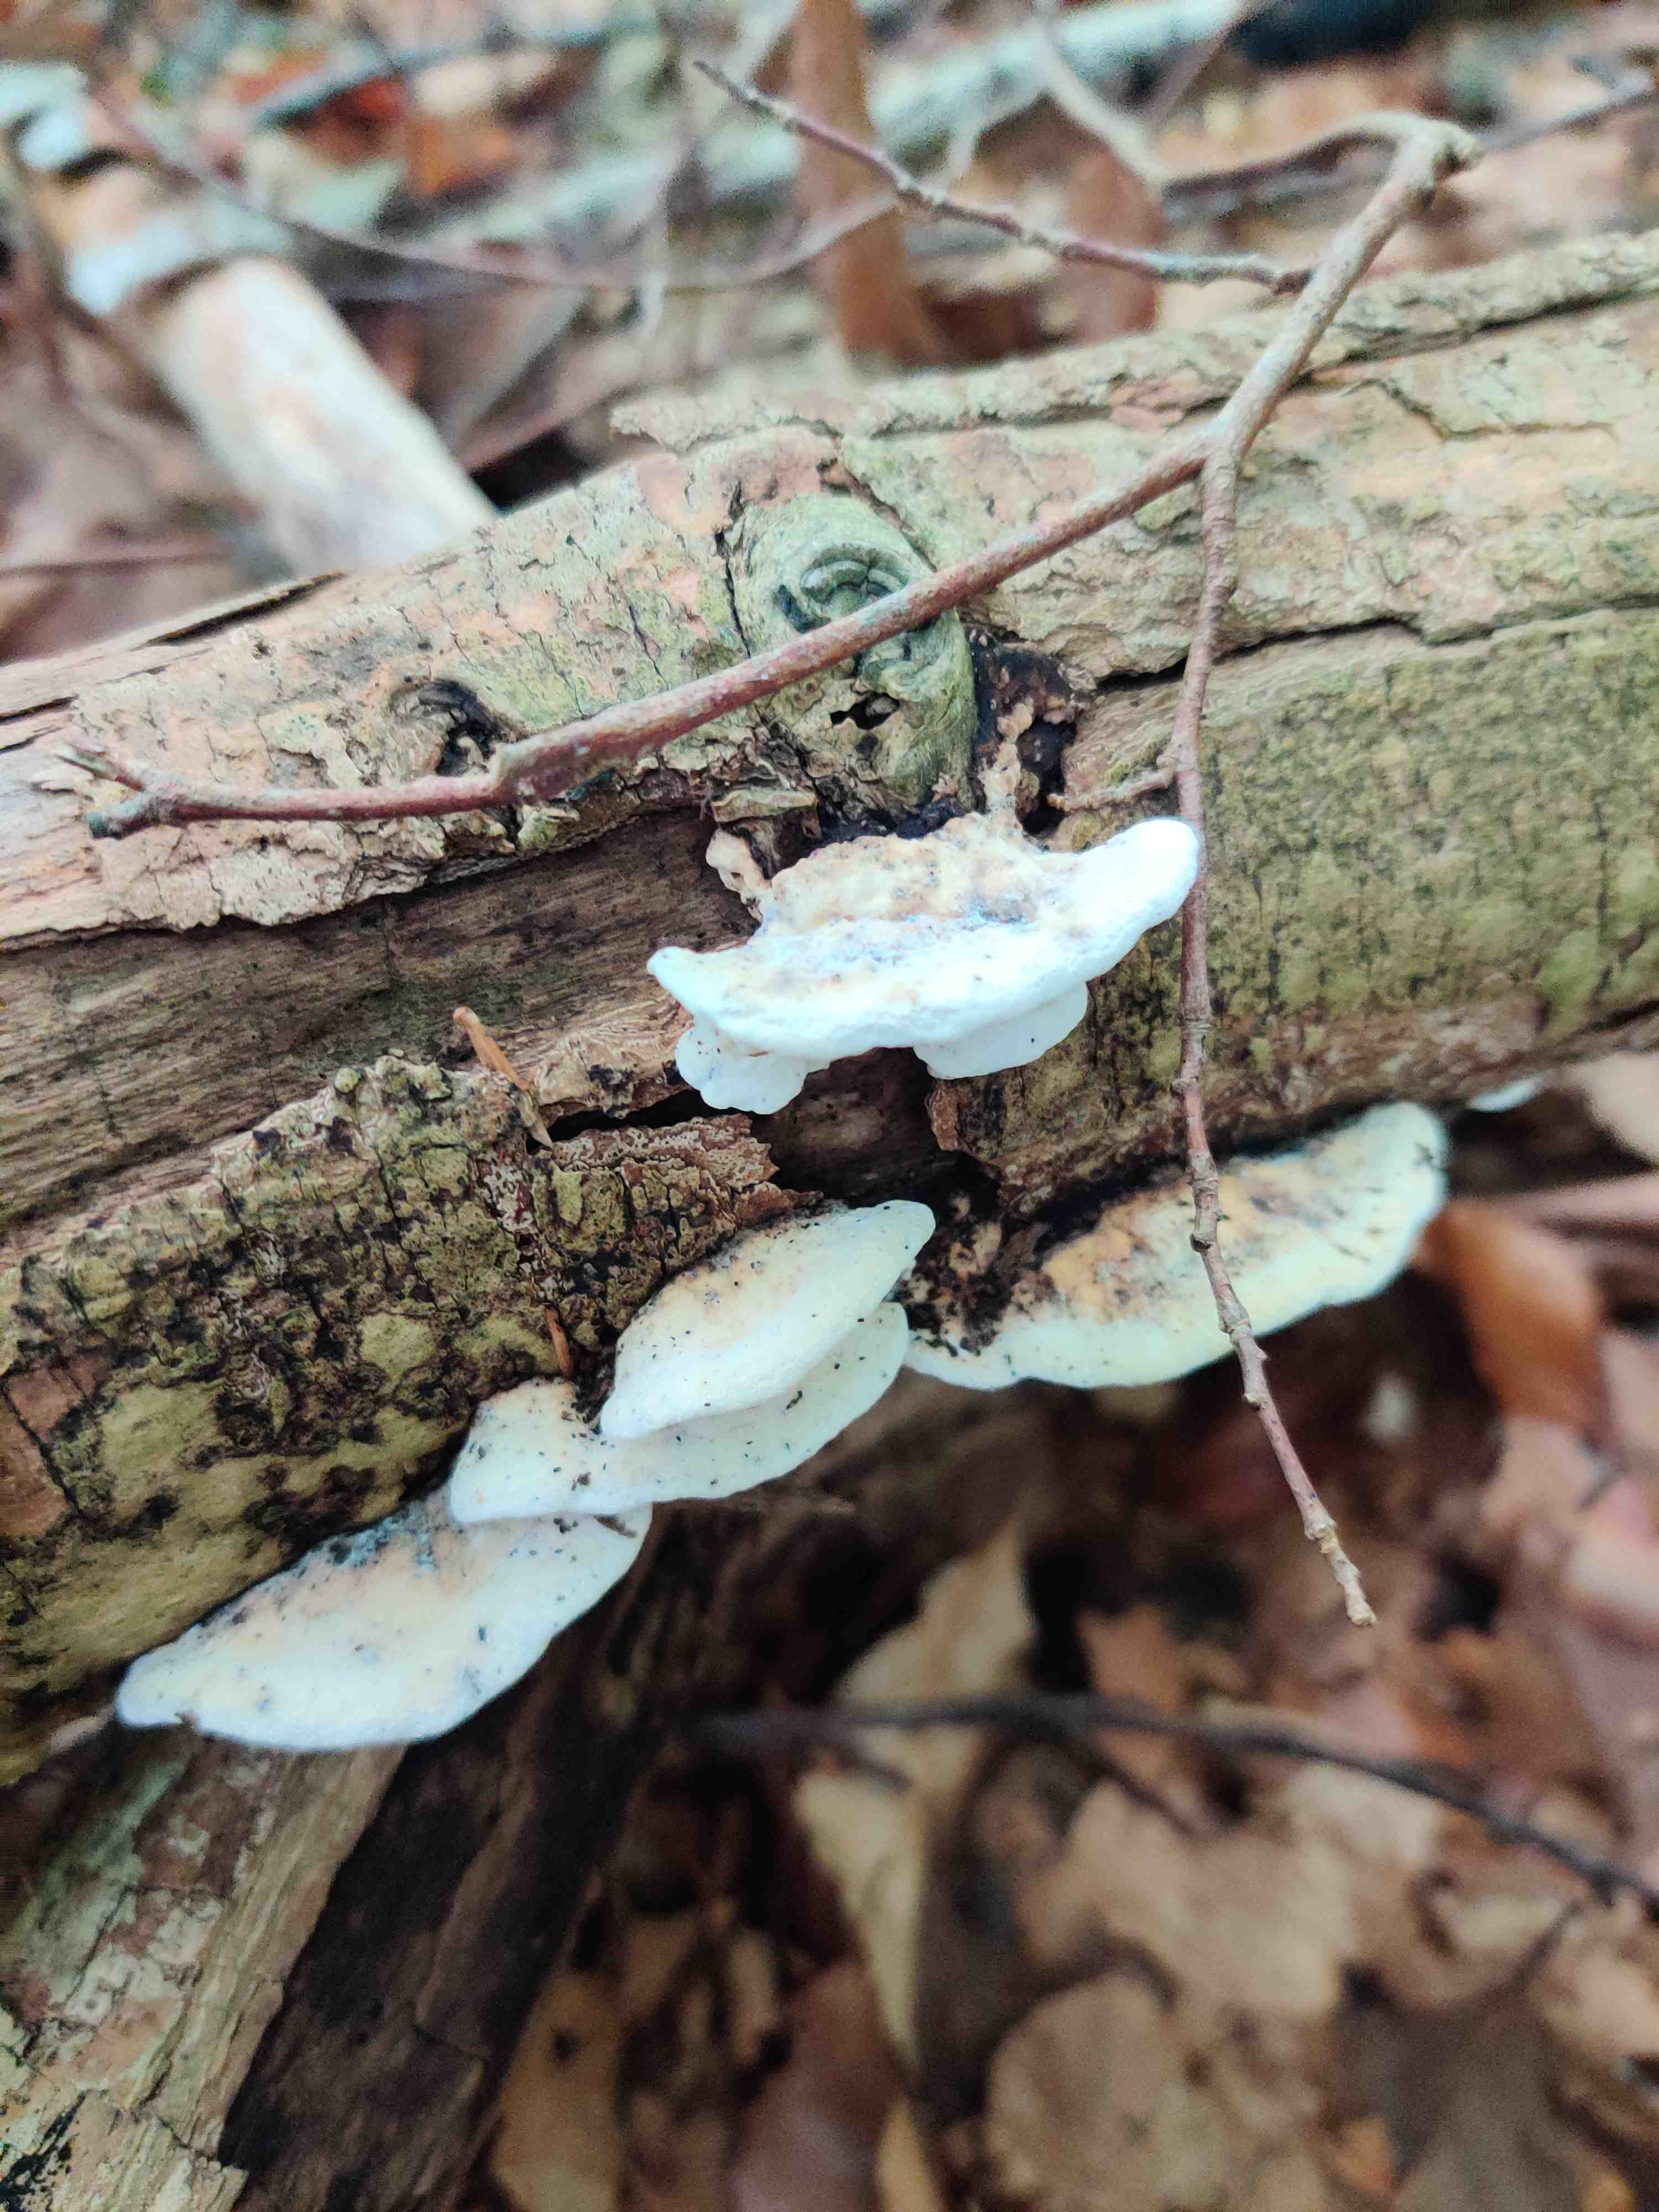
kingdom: Fungi
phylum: Basidiomycota
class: Agaricomycetes
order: Polyporales
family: Incrustoporiaceae
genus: Skeletocutis
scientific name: Skeletocutis nemoralis
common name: stor krystalporesvamp
